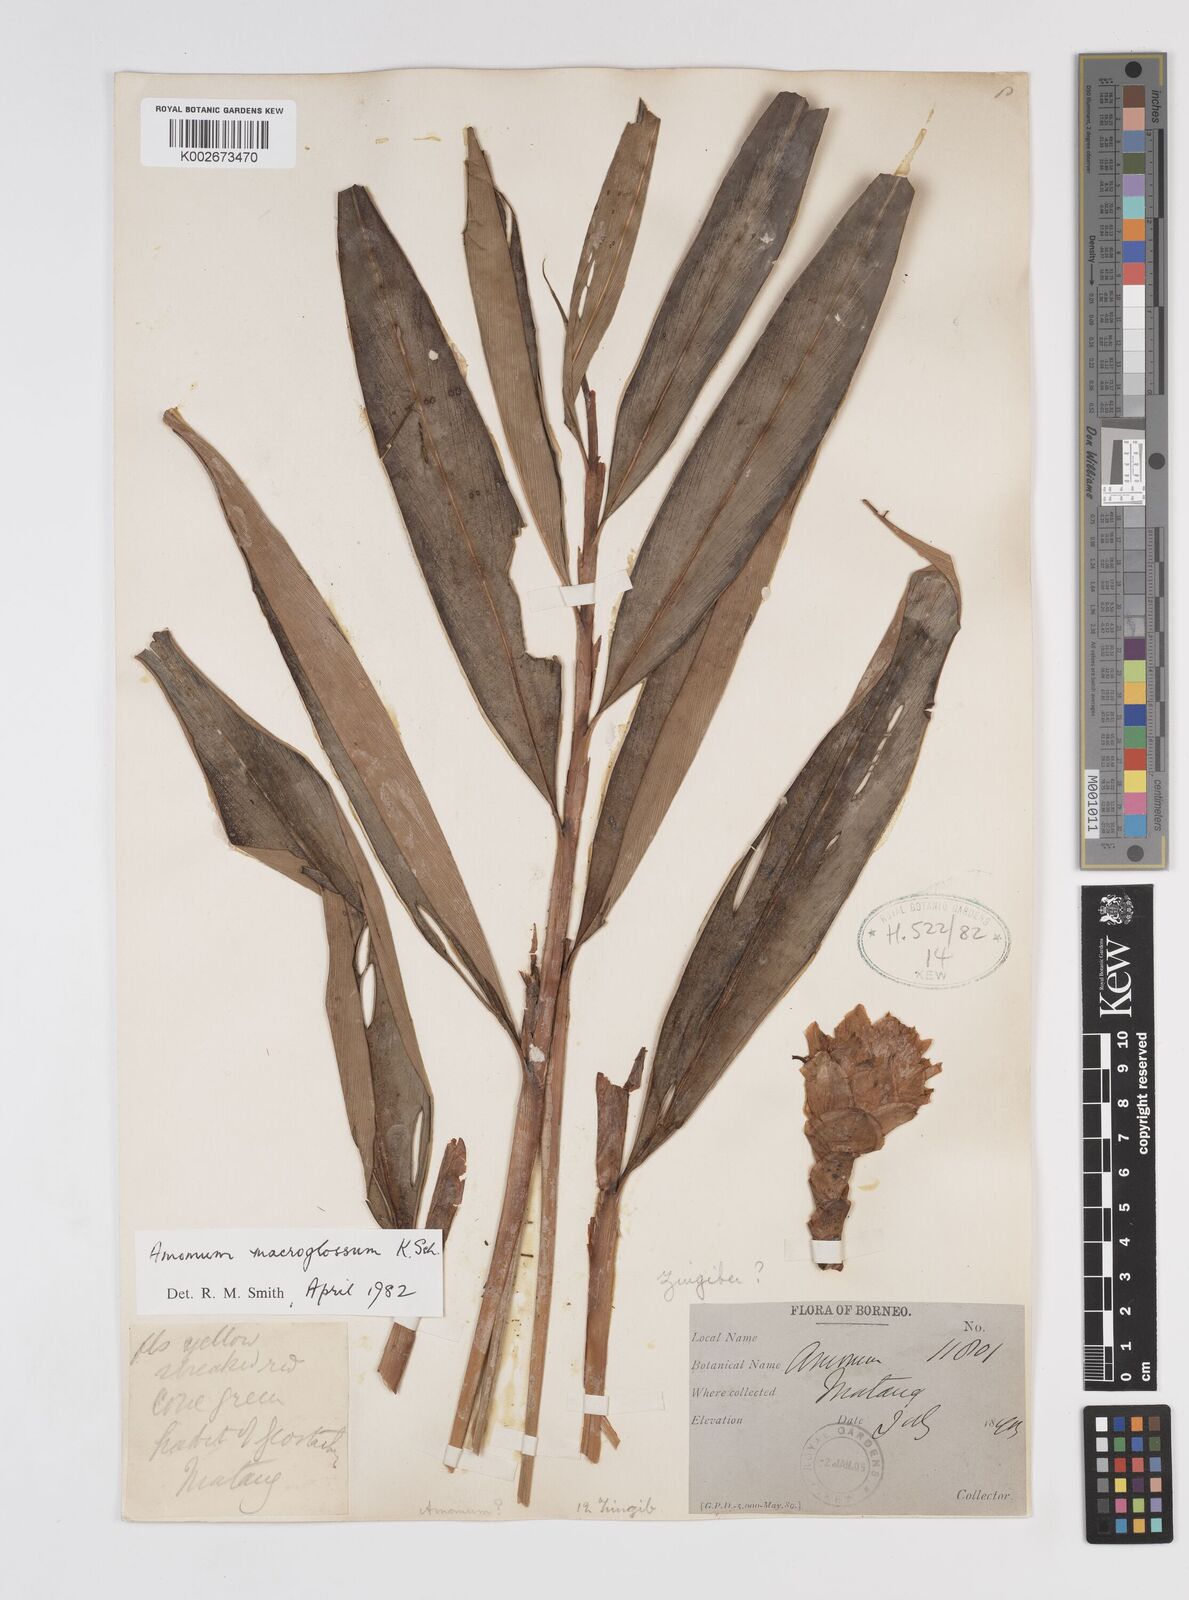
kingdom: Plantae
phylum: Tracheophyta
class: Liliopsida
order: Zingiberales
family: Zingiberaceae
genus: Aframomum
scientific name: Aframomum citratum
